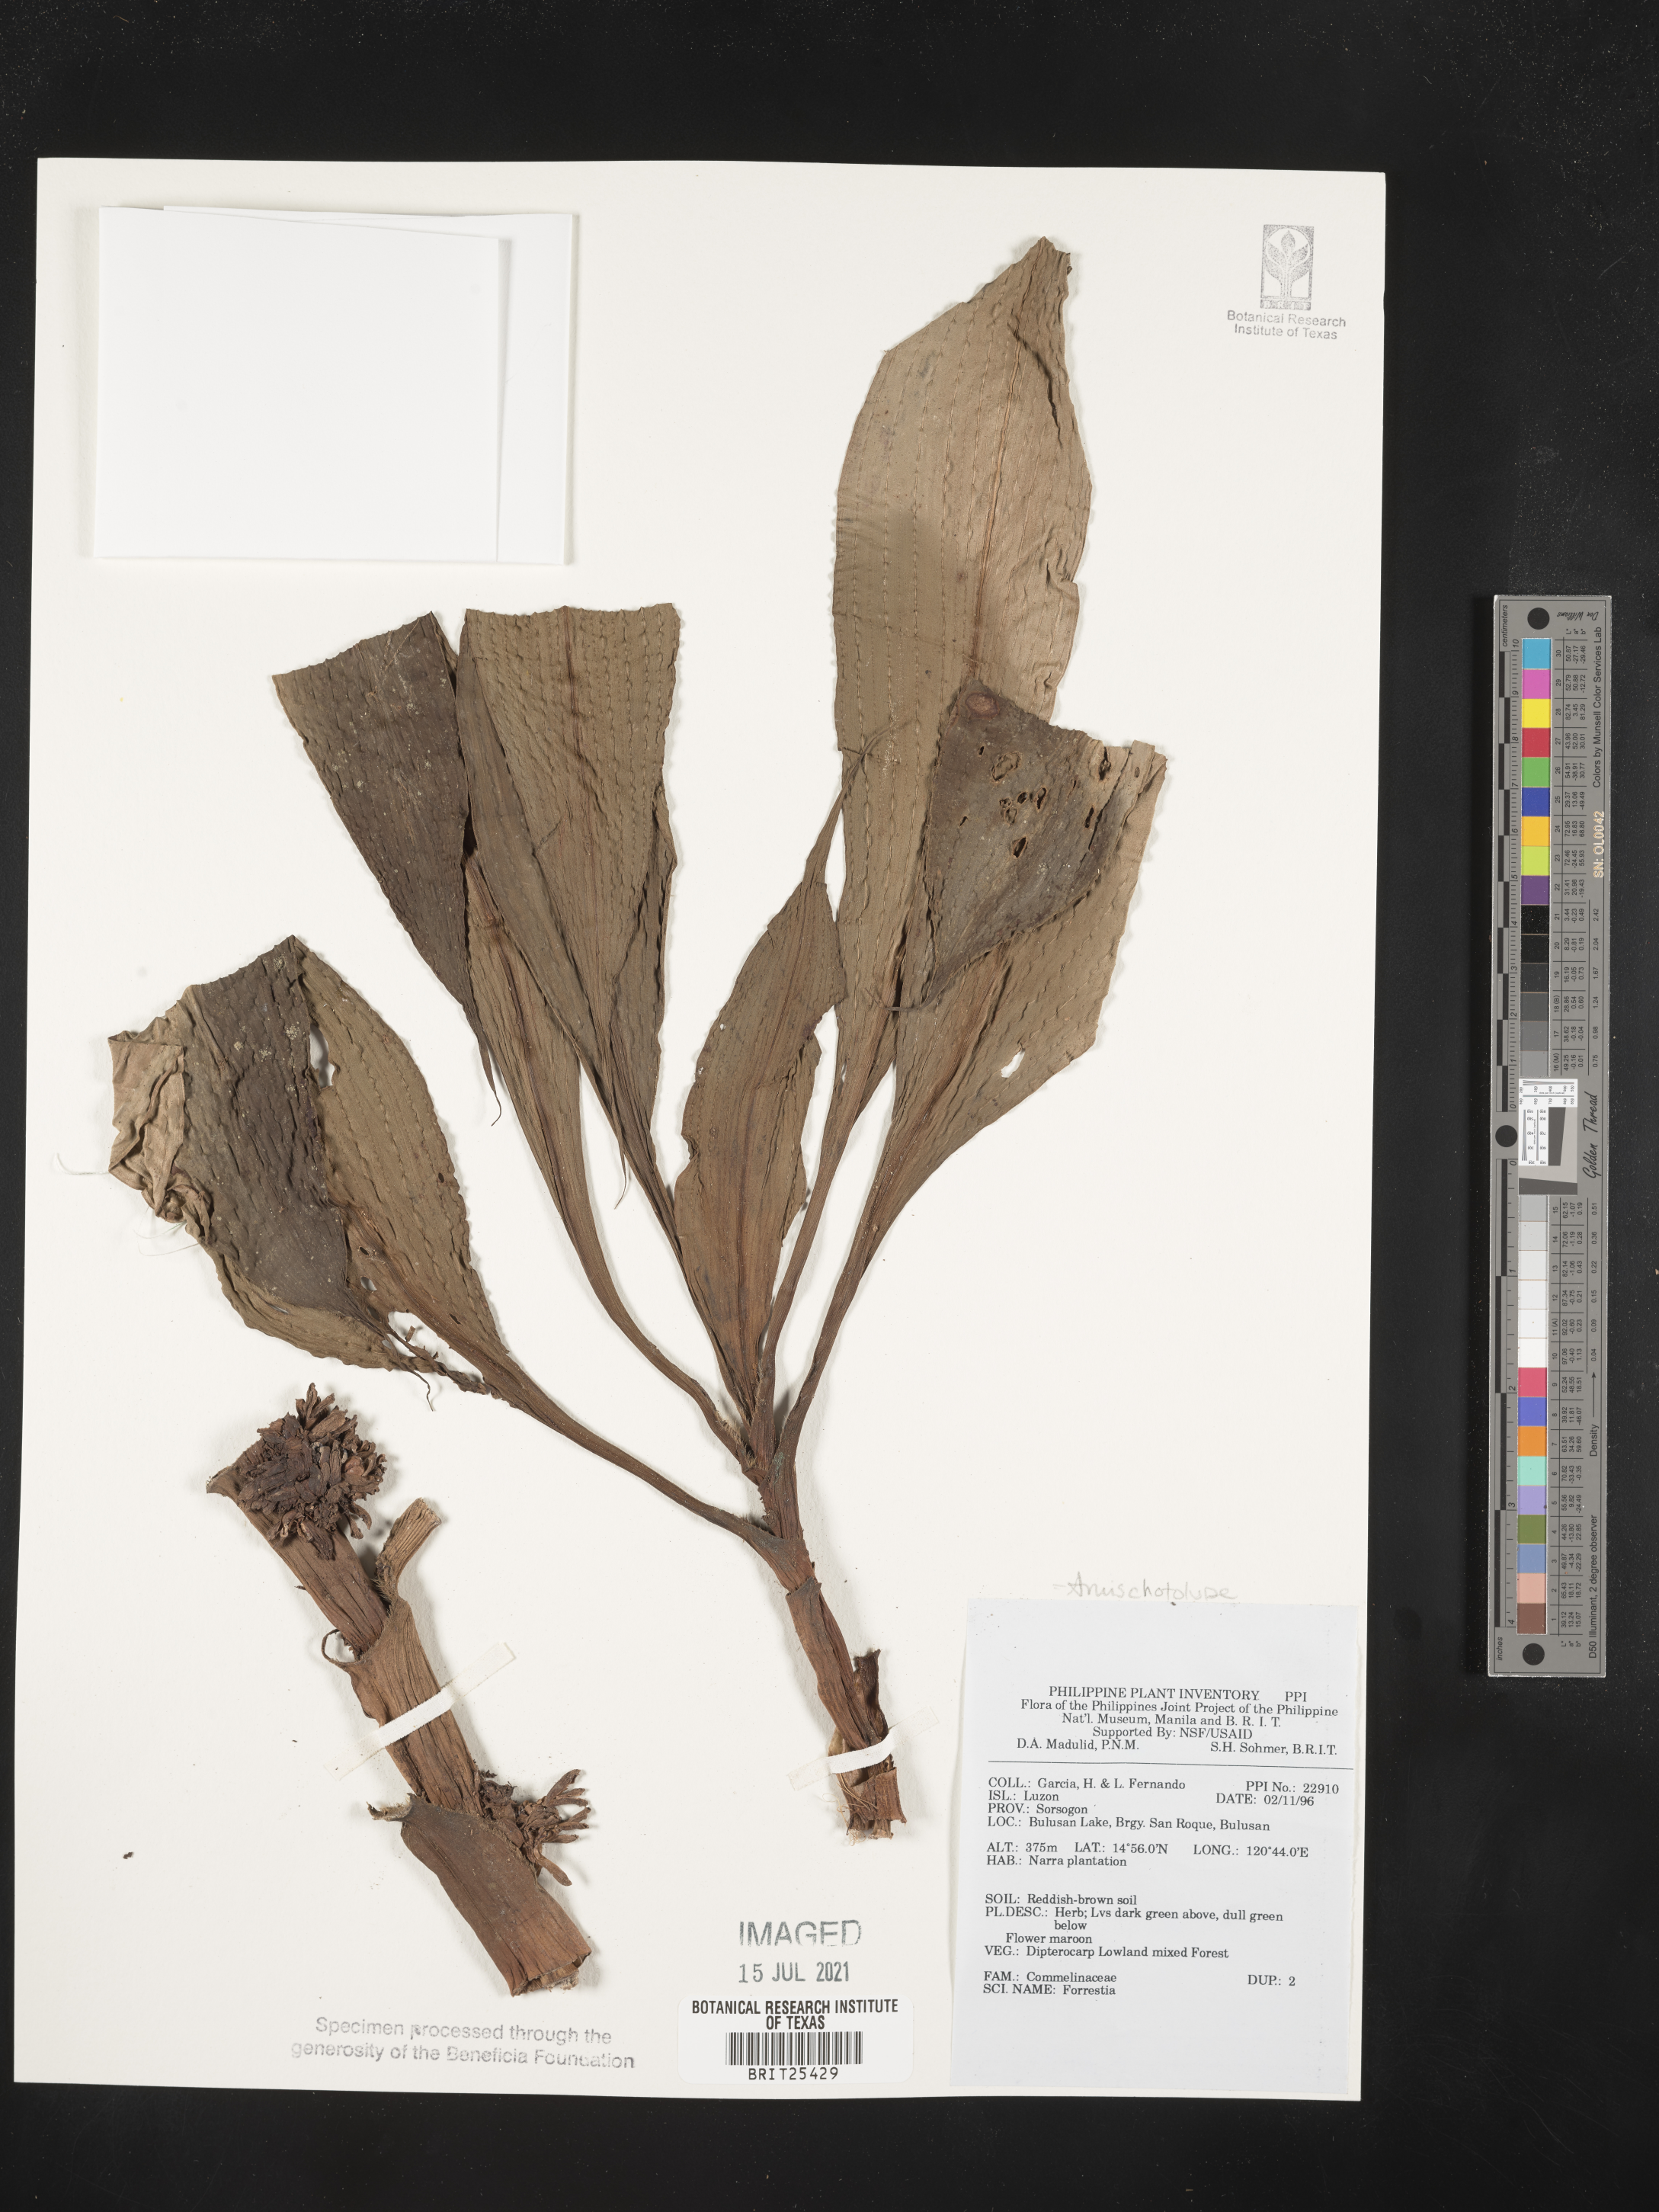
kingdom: Plantae
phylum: Tracheophyta
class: Magnoliopsida
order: Rosales
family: Rhamnaceae
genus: Ceanothus
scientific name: Ceanothus
